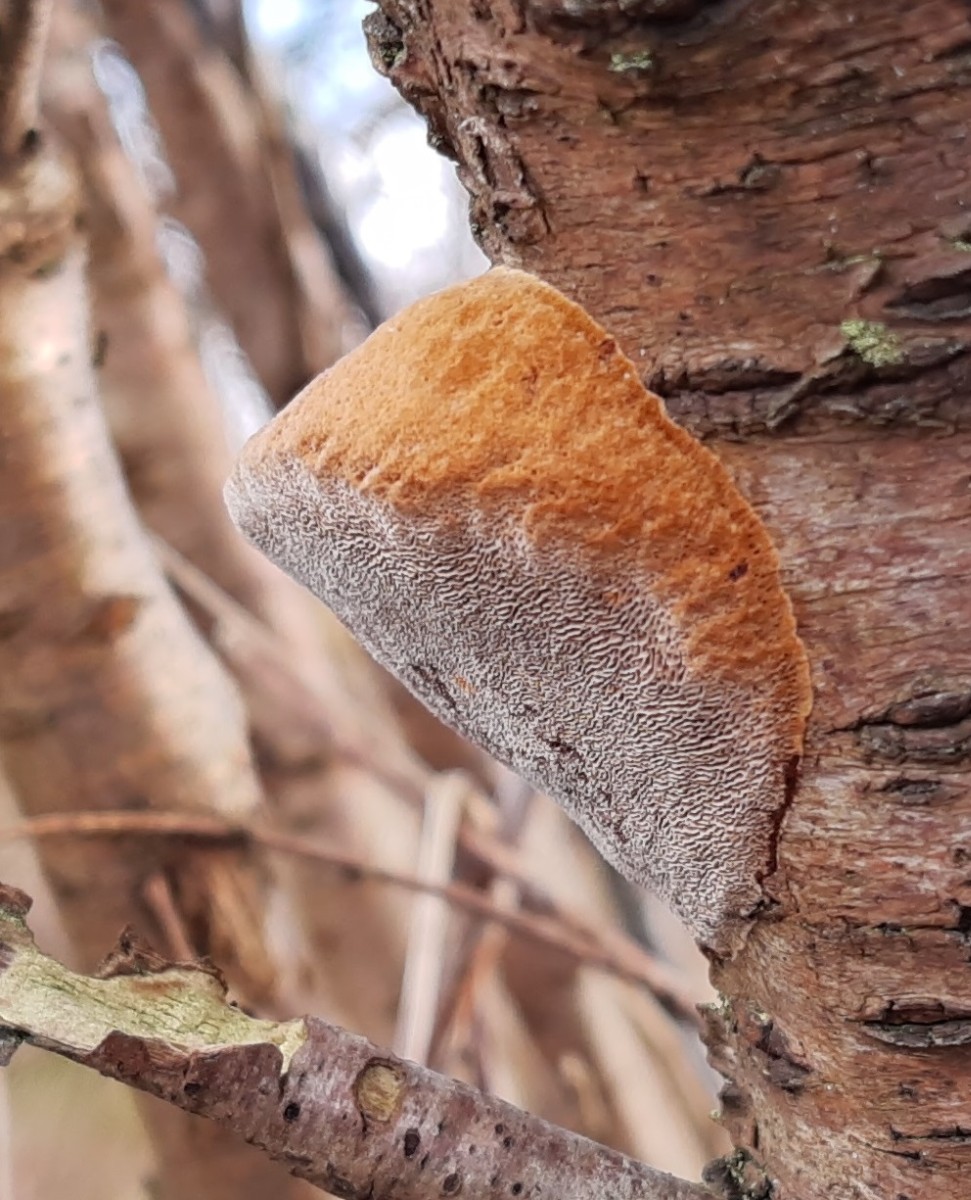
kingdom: Fungi
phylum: Basidiomycota
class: Agaricomycetes
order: Hymenochaetales
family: Hymenochaetaceae
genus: Phellinus
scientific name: Phellinus pomaceus
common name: blomme-ildporesvamp
